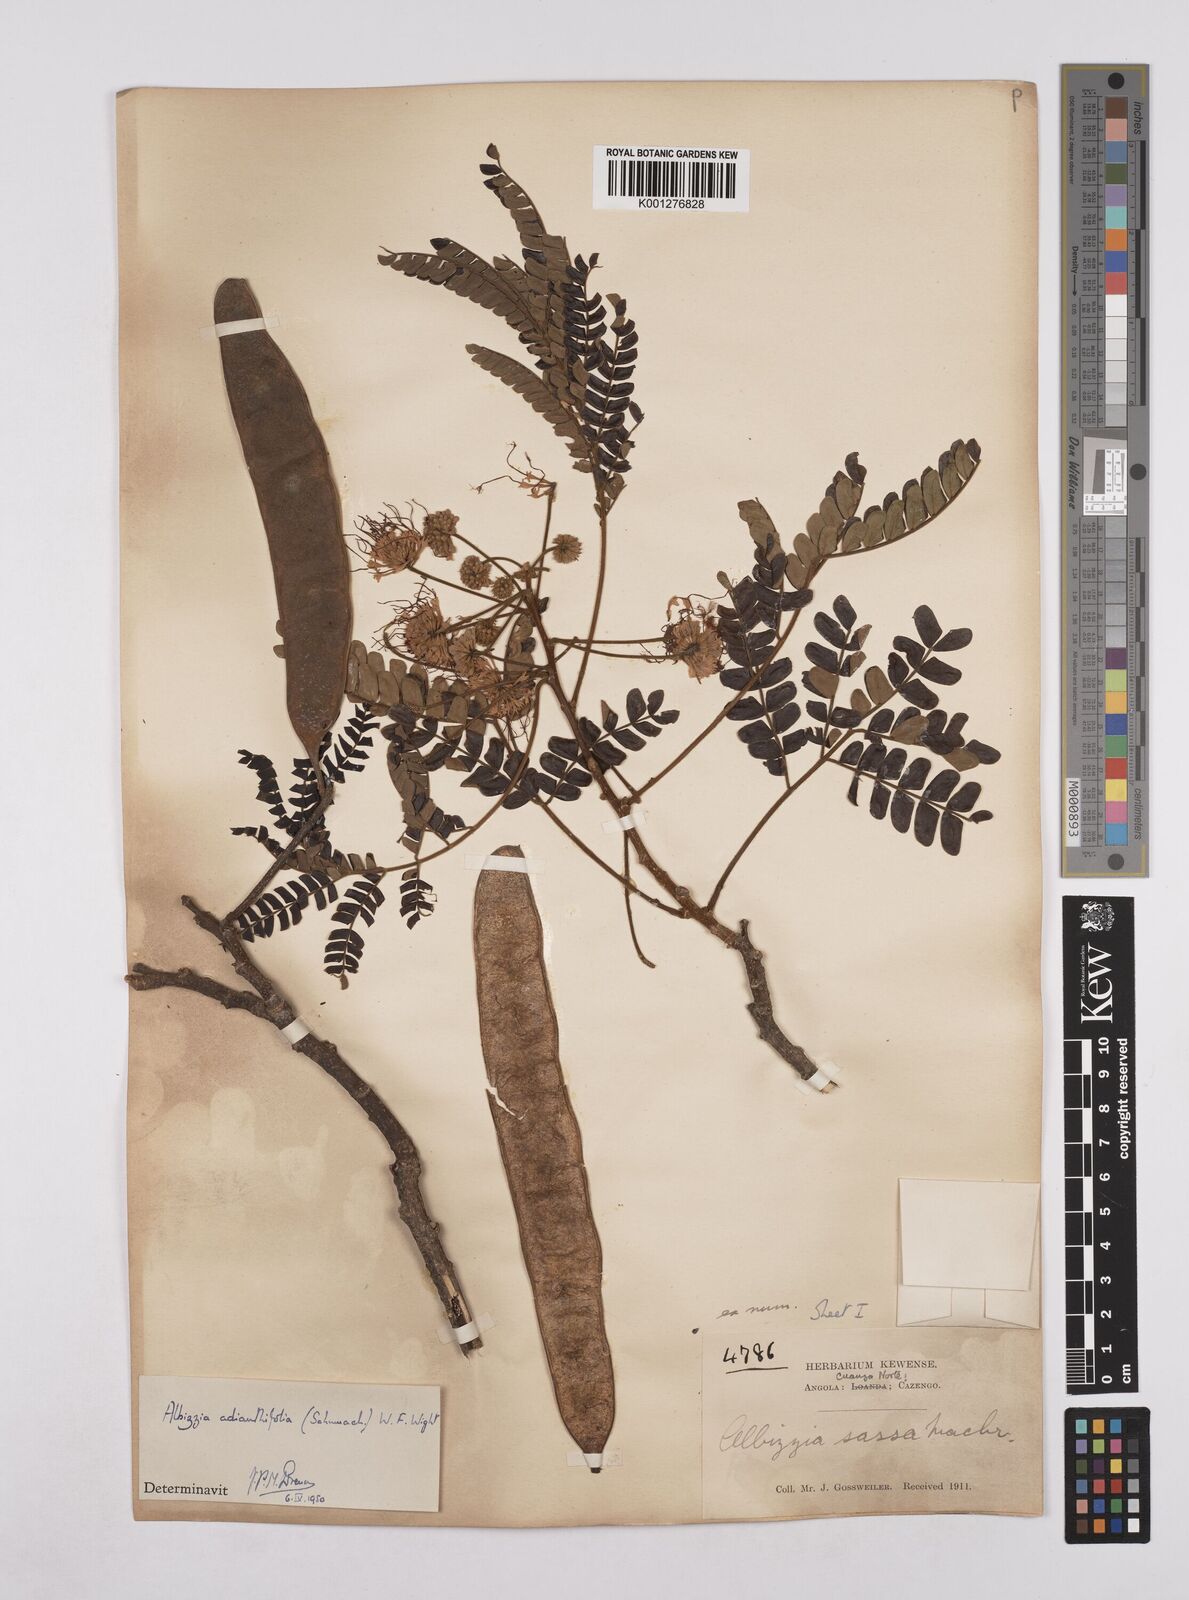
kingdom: Plantae
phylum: Tracheophyta
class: Magnoliopsida
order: Fabales
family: Fabaceae
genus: Albizia
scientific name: Albizia adianthifolia
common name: West african albizia
